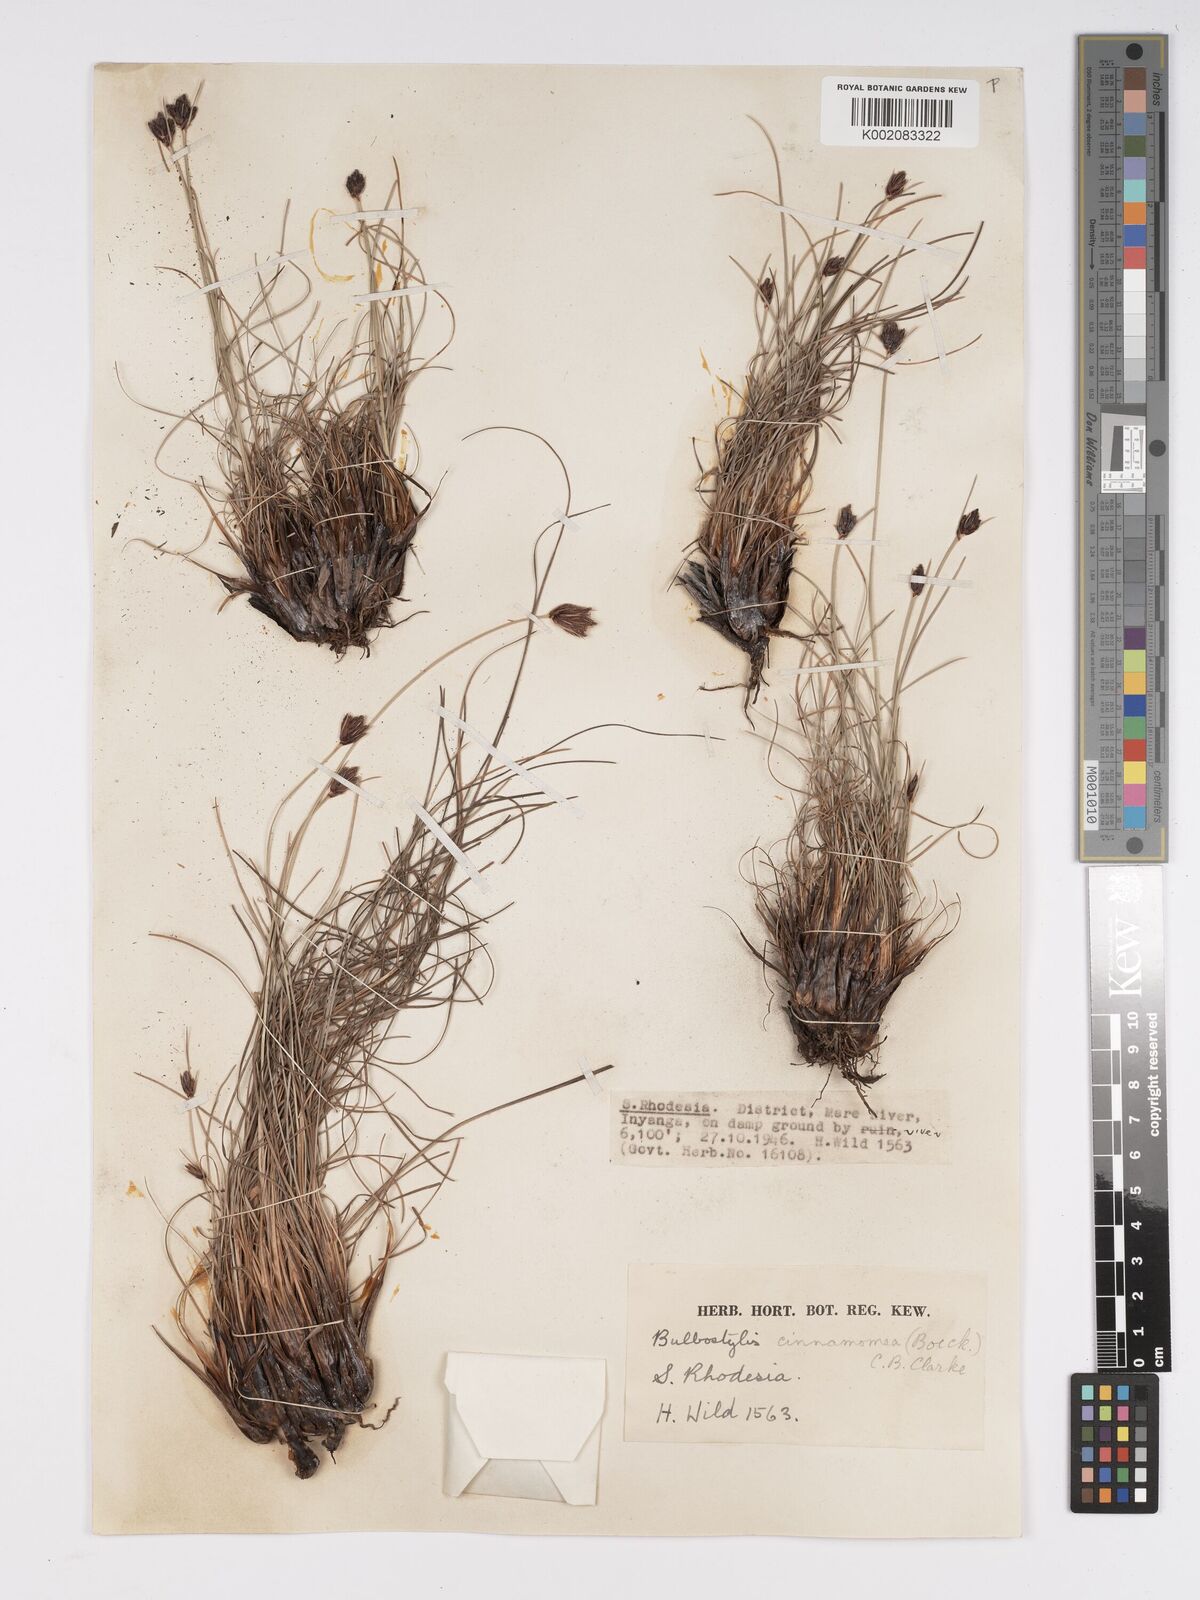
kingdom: Plantae
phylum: Tracheophyta
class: Liliopsida
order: Poales
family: Cyperaceae
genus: Bulbostylis
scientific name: Bulbostylis schoenoides
